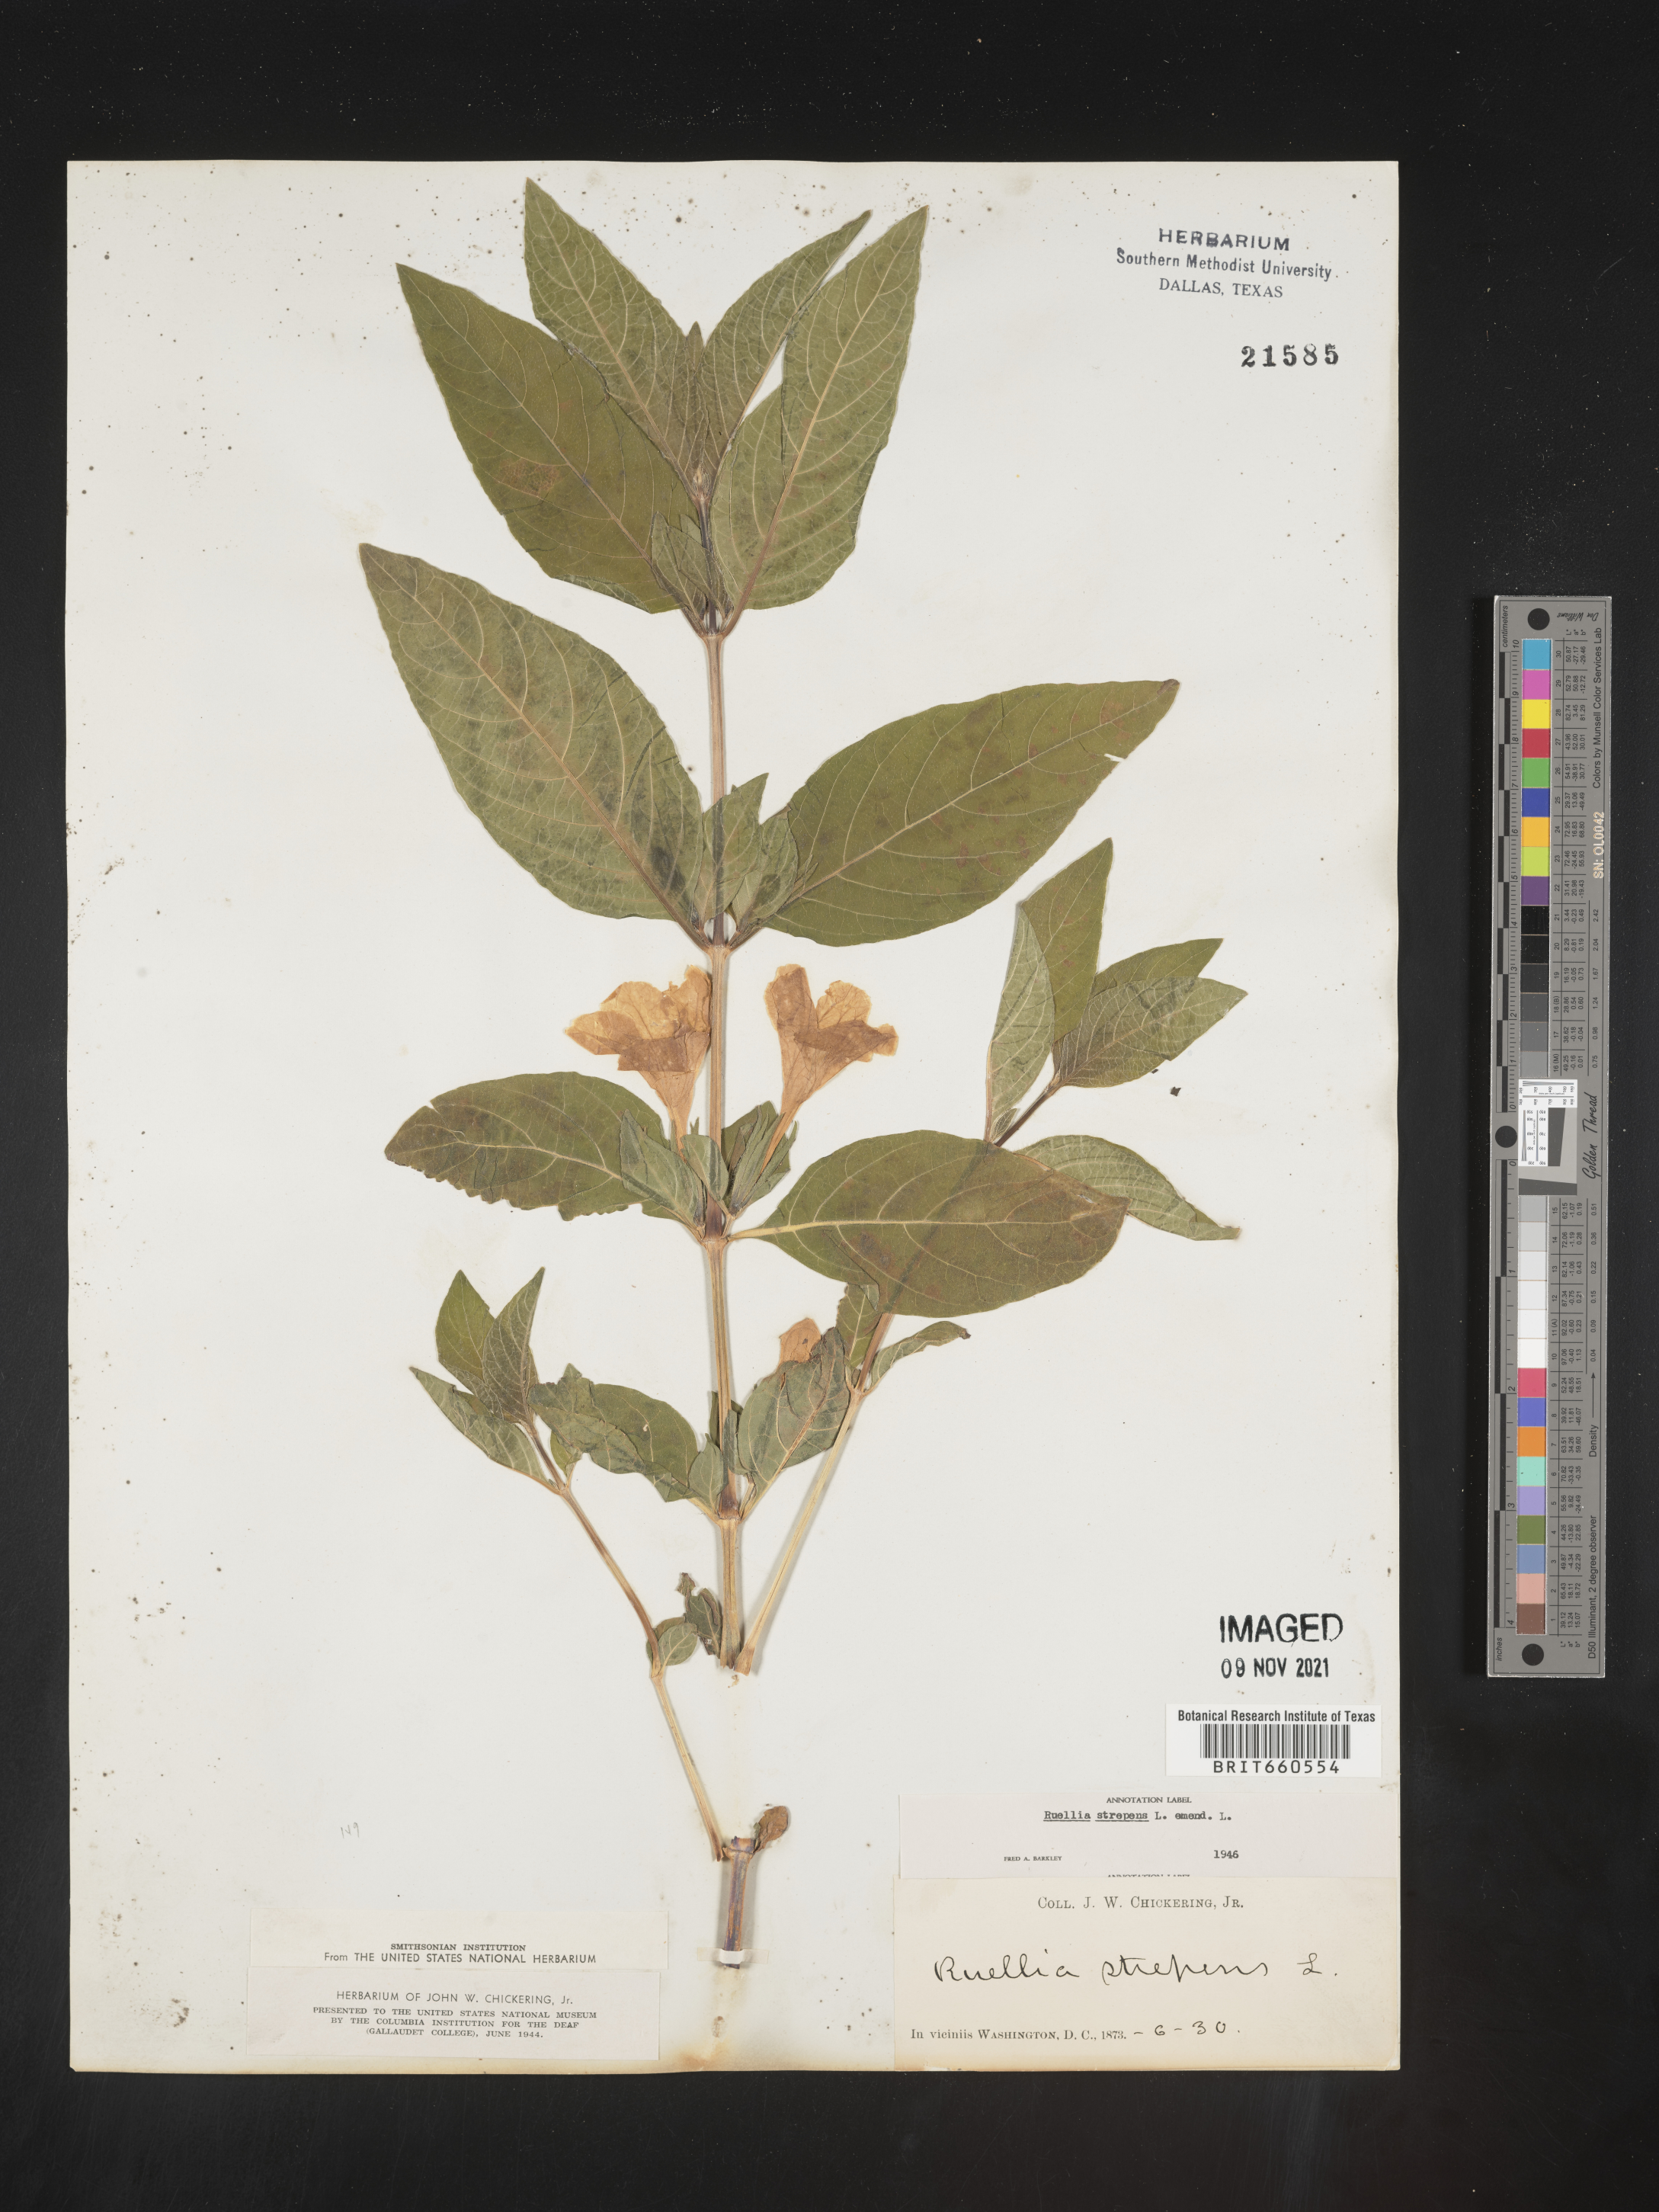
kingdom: Plantae
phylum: Tracheophyta
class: Magnoliopsida
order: Lamiales
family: Acanthaceae
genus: Ruellia
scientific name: Ruellia strepens
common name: Limestone wild petunia
